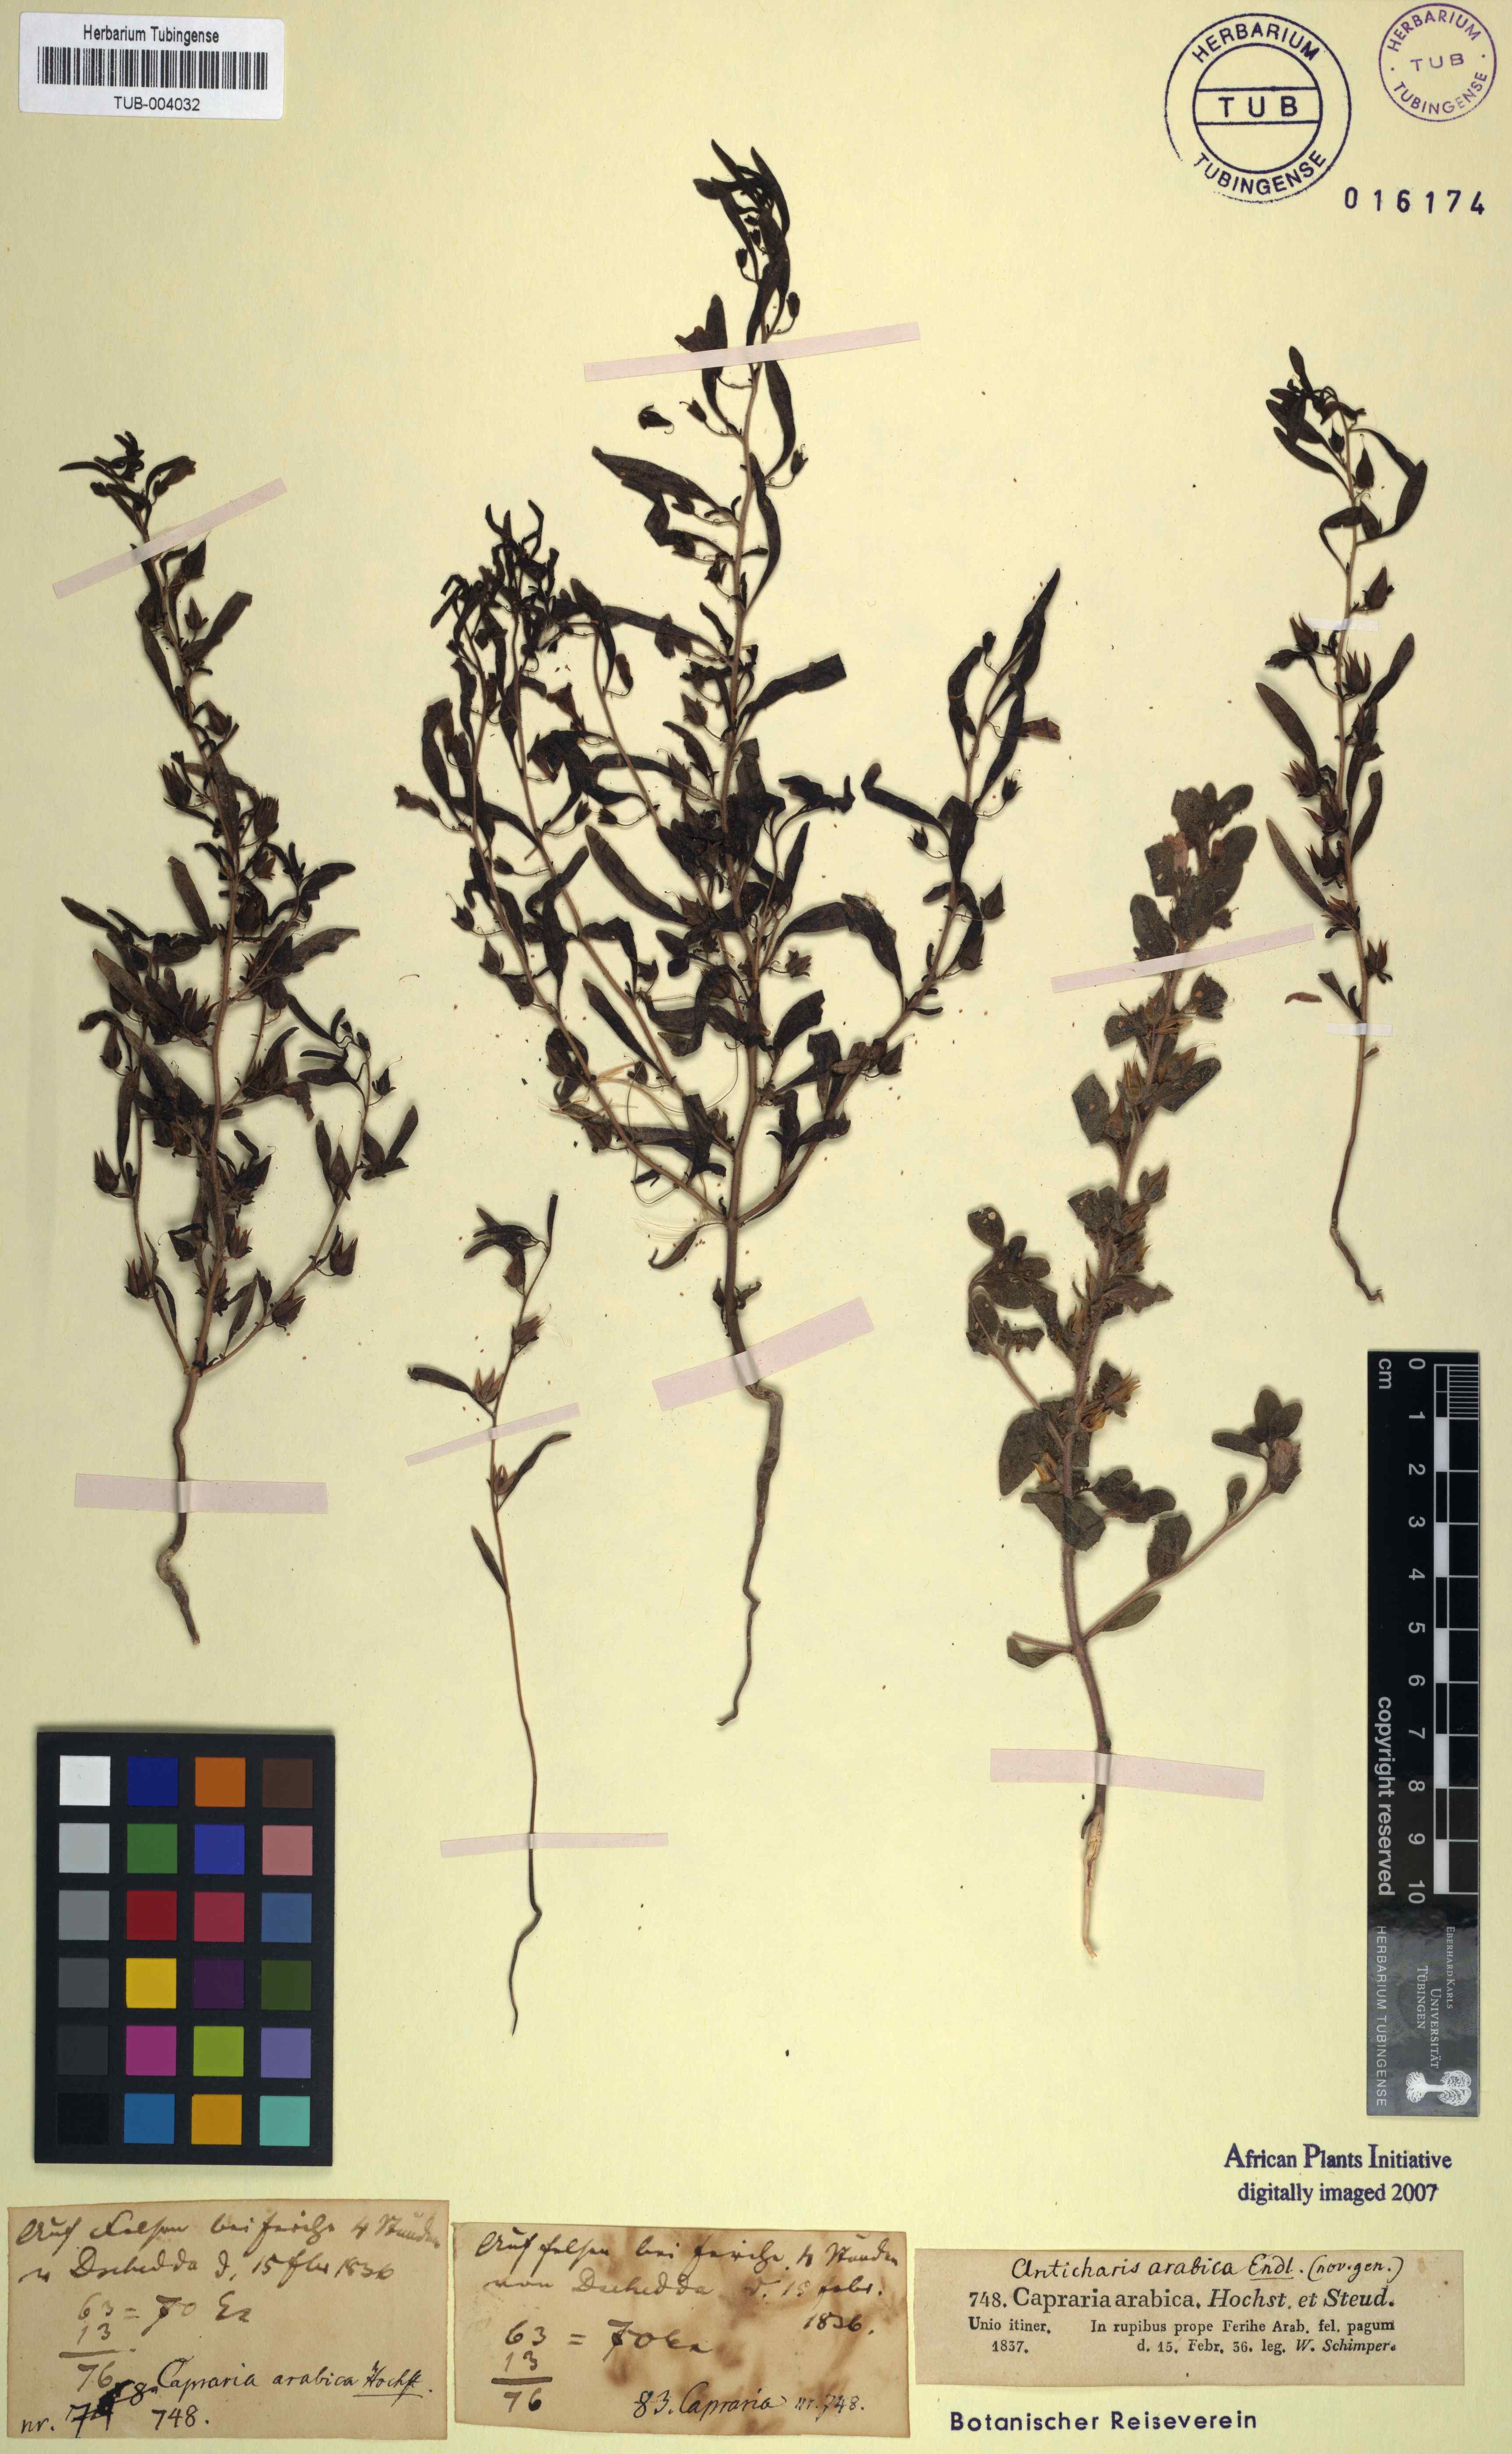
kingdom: Plantae
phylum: Tracheophyta
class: Magnoliopsida
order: Lamiales
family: Scrophulariaceae
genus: Anticharis
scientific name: Anticharis arabica
